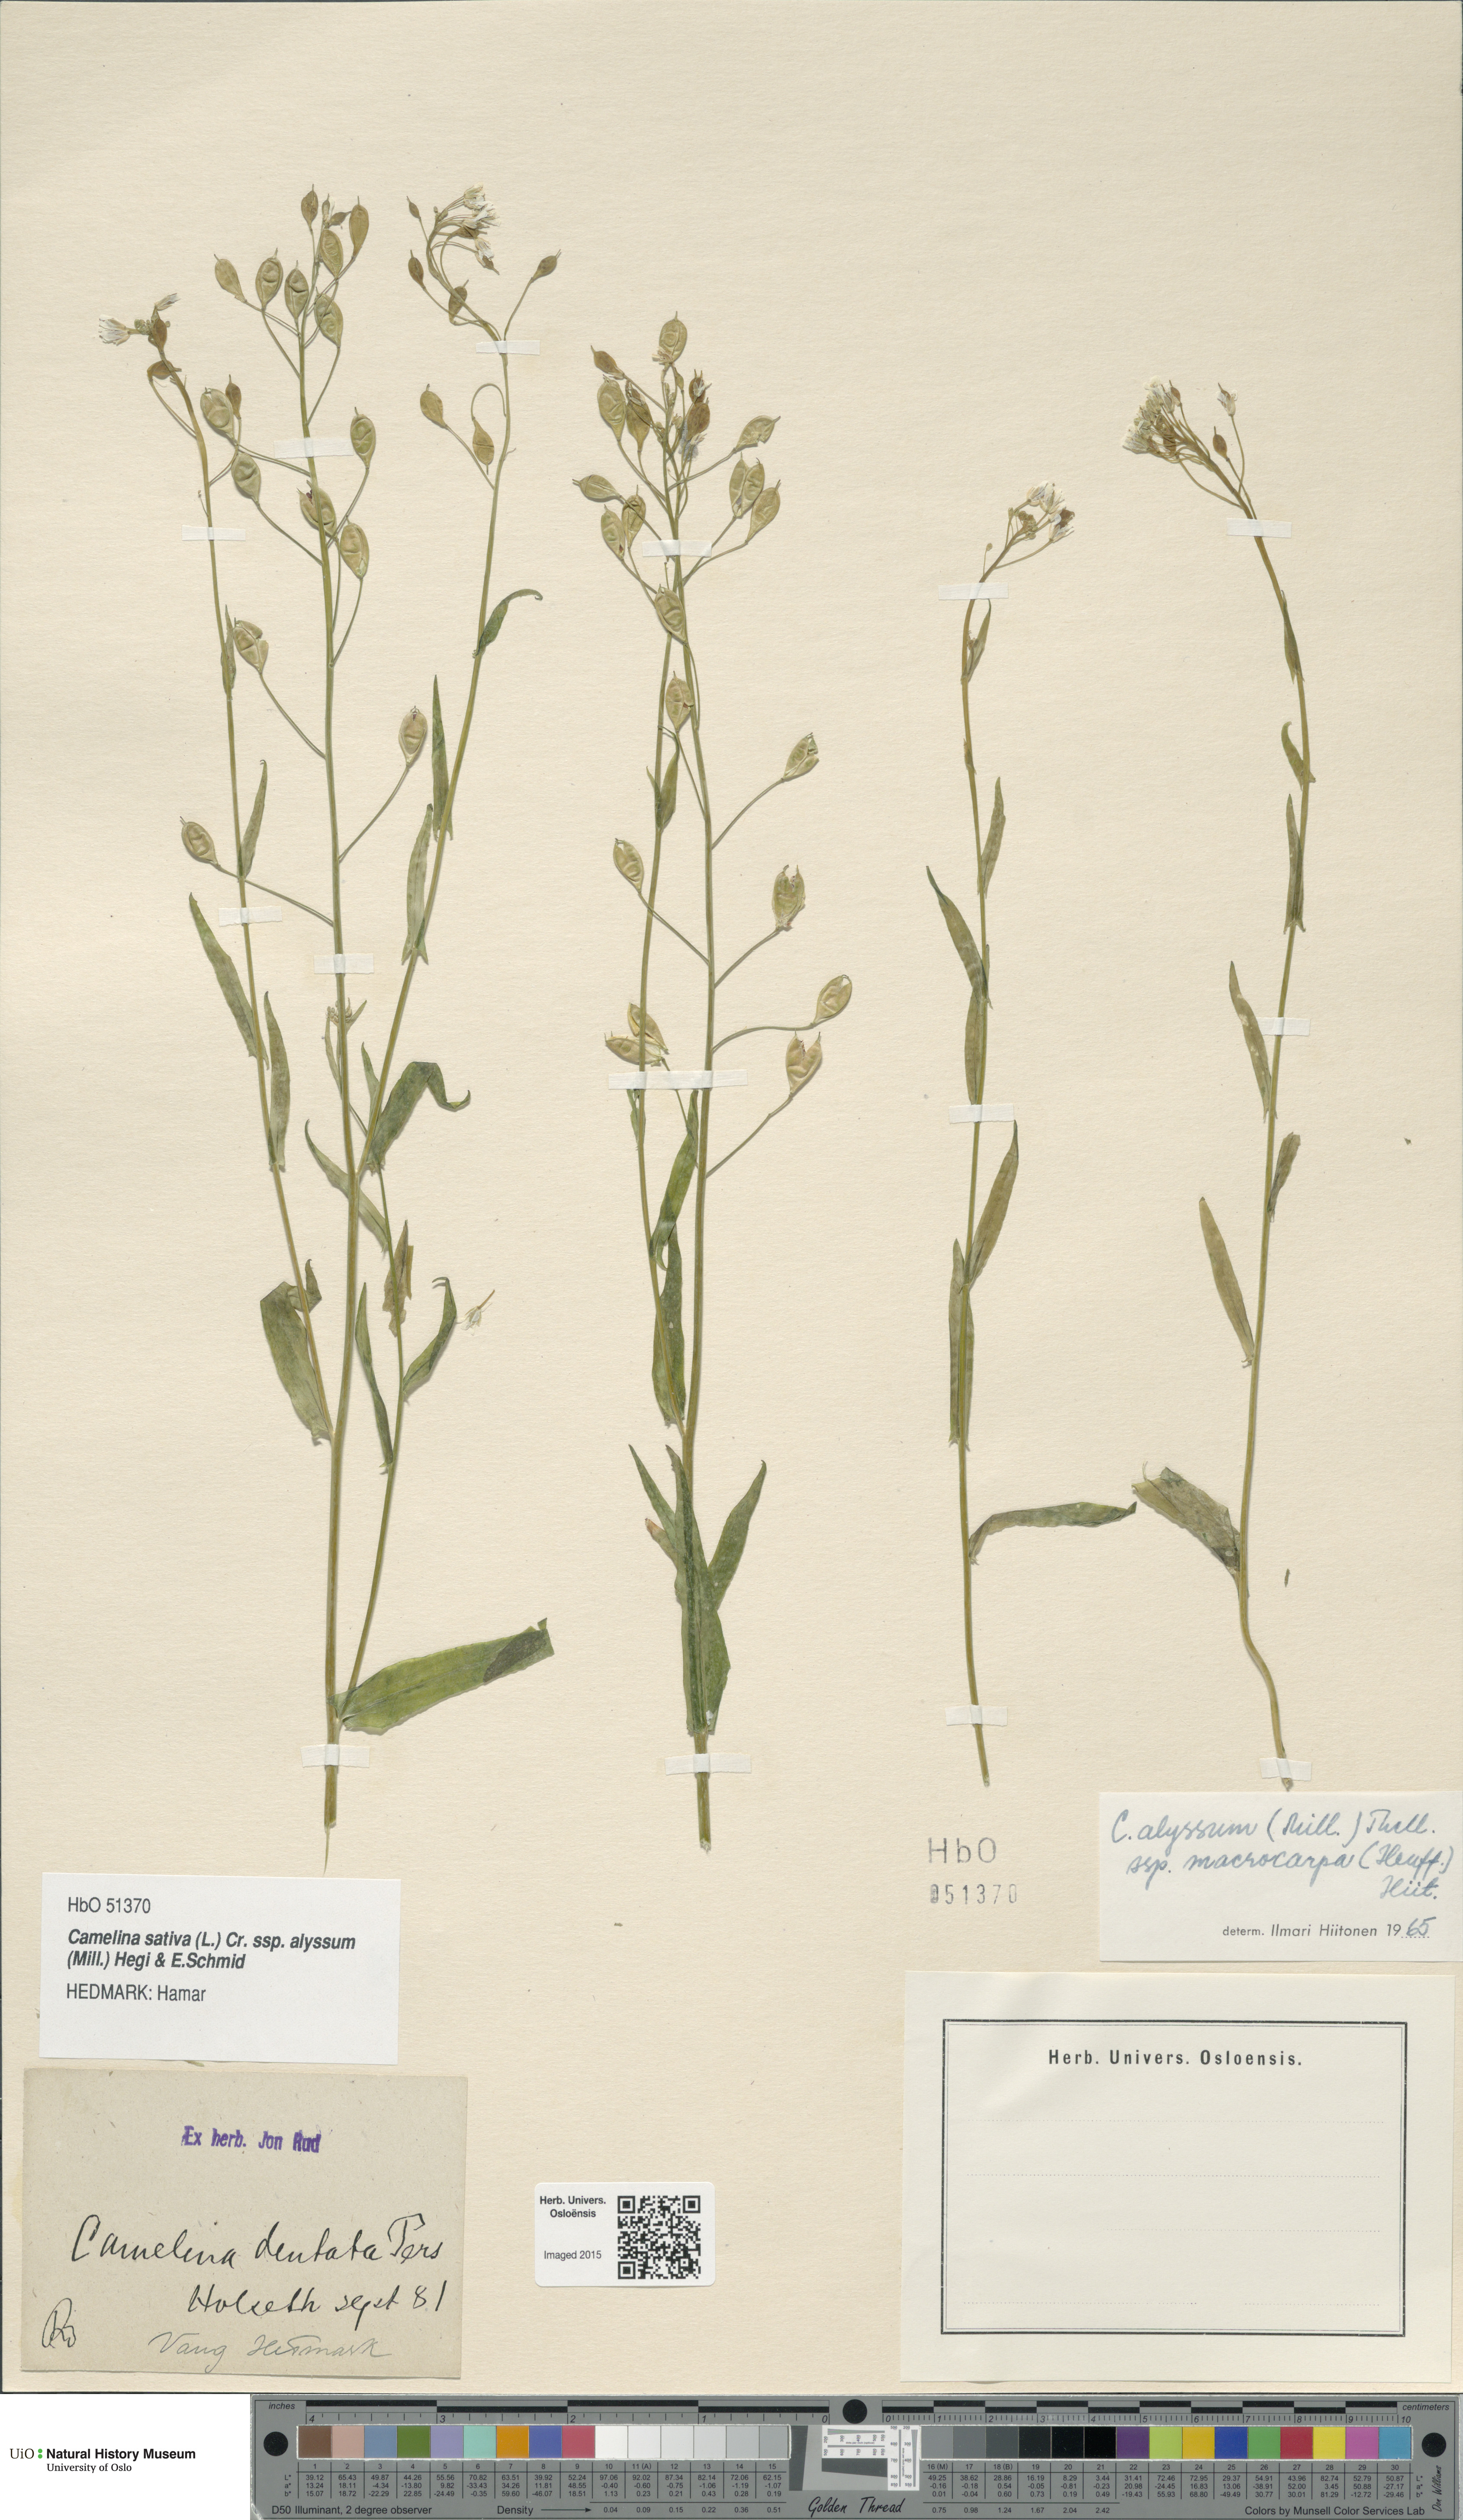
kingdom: Plantae
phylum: Tracheophyta
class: Magnoliopsida
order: Brassicales
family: Brassicaceae
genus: Camelina
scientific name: Camelina alyssum
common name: Gold-of-pleasure
